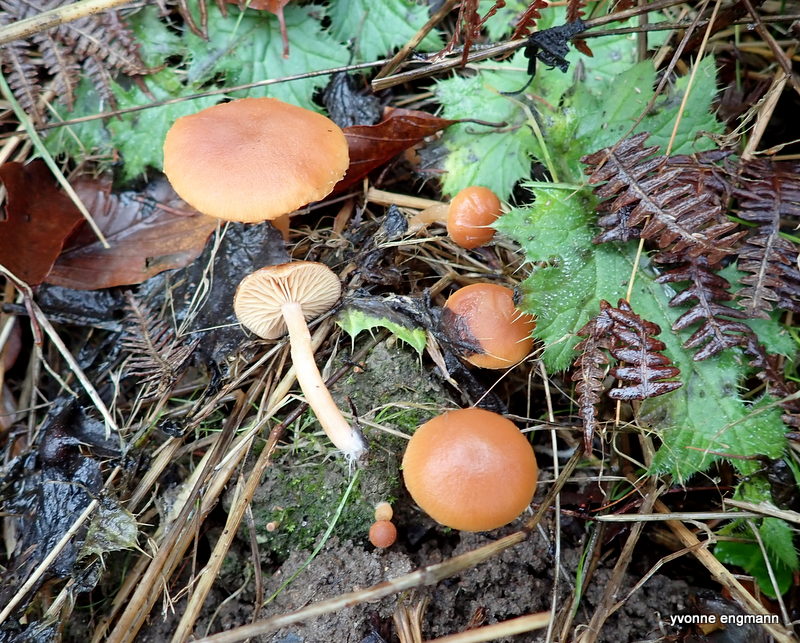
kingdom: Fungi
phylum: Basidiomycota
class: Agaricomycetes
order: Agaricales
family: Tubariaceae
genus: Tubaria
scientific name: Tubaria furfuracea
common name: kliddet fnughat
